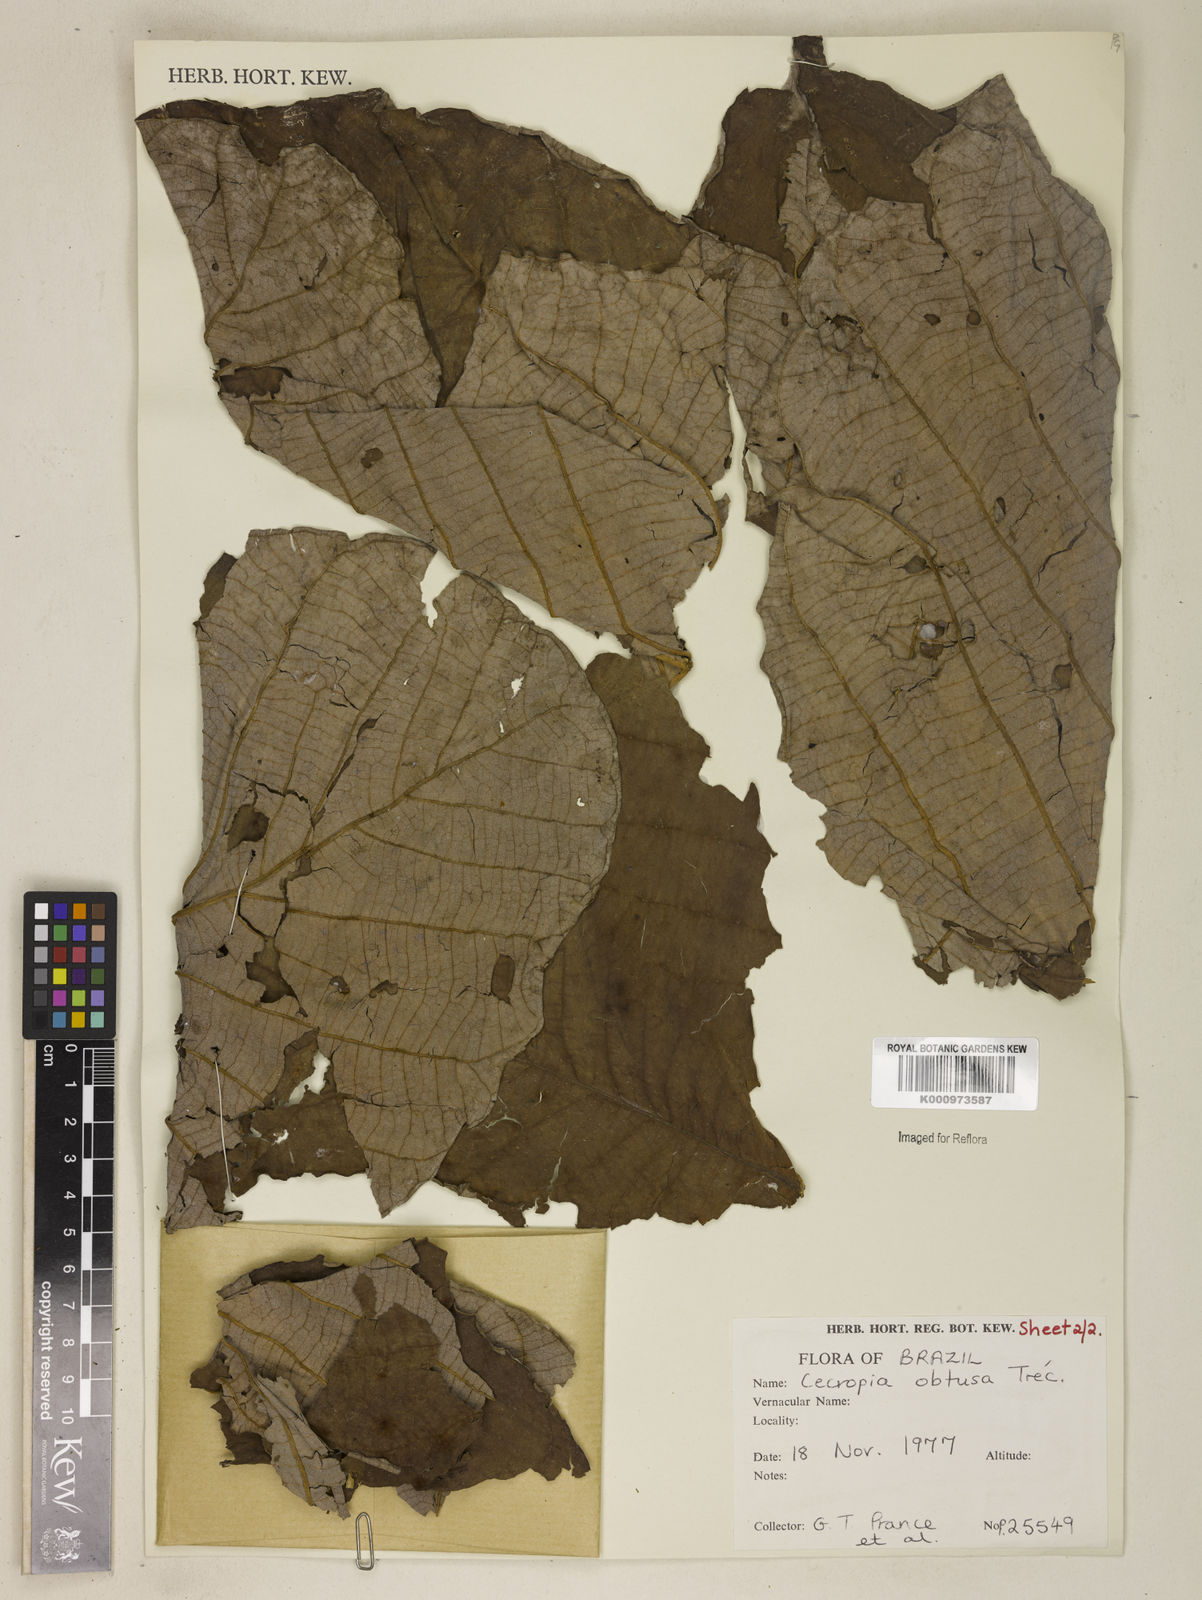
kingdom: Plantae
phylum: Tracheophyta
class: Magnoliopsida
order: Rosales
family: Urticaceae
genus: Cecropia
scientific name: Cecropia
